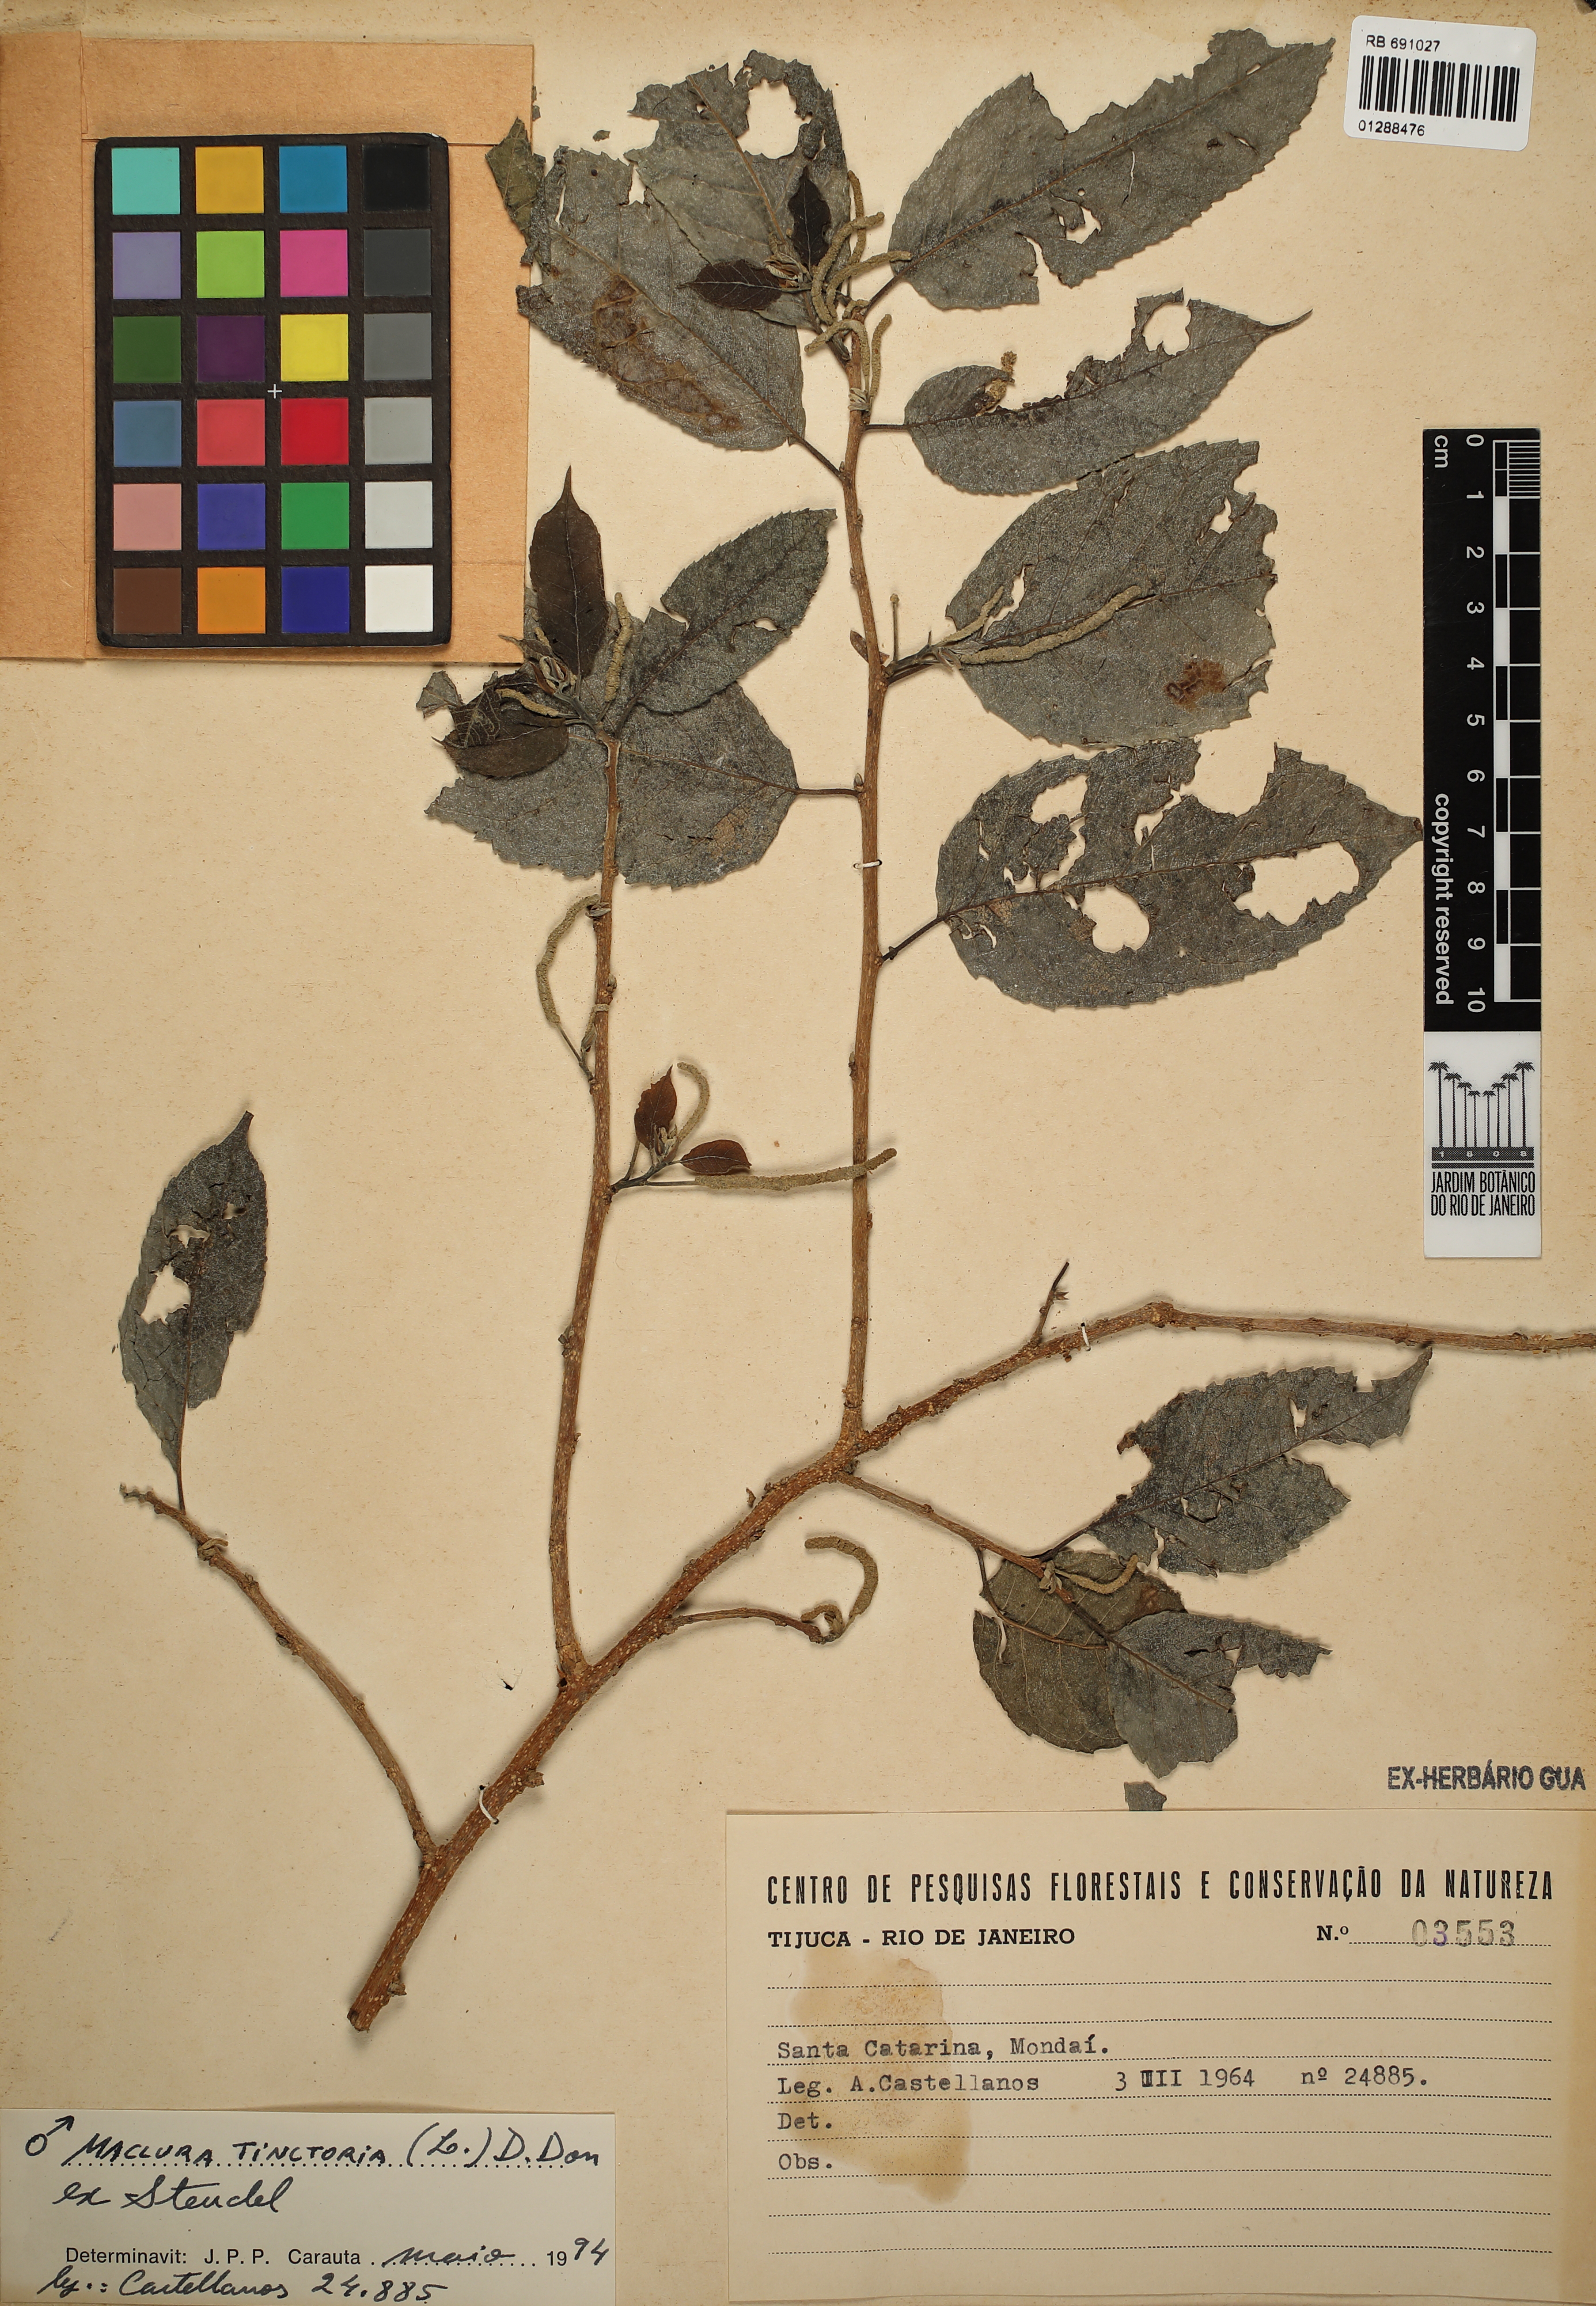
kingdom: Plantae
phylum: Tracheophyta
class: Magnoliopsida
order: Rosales
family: Moraceae
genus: Maclura
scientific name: Maclura tinctoria
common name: Old fustic
